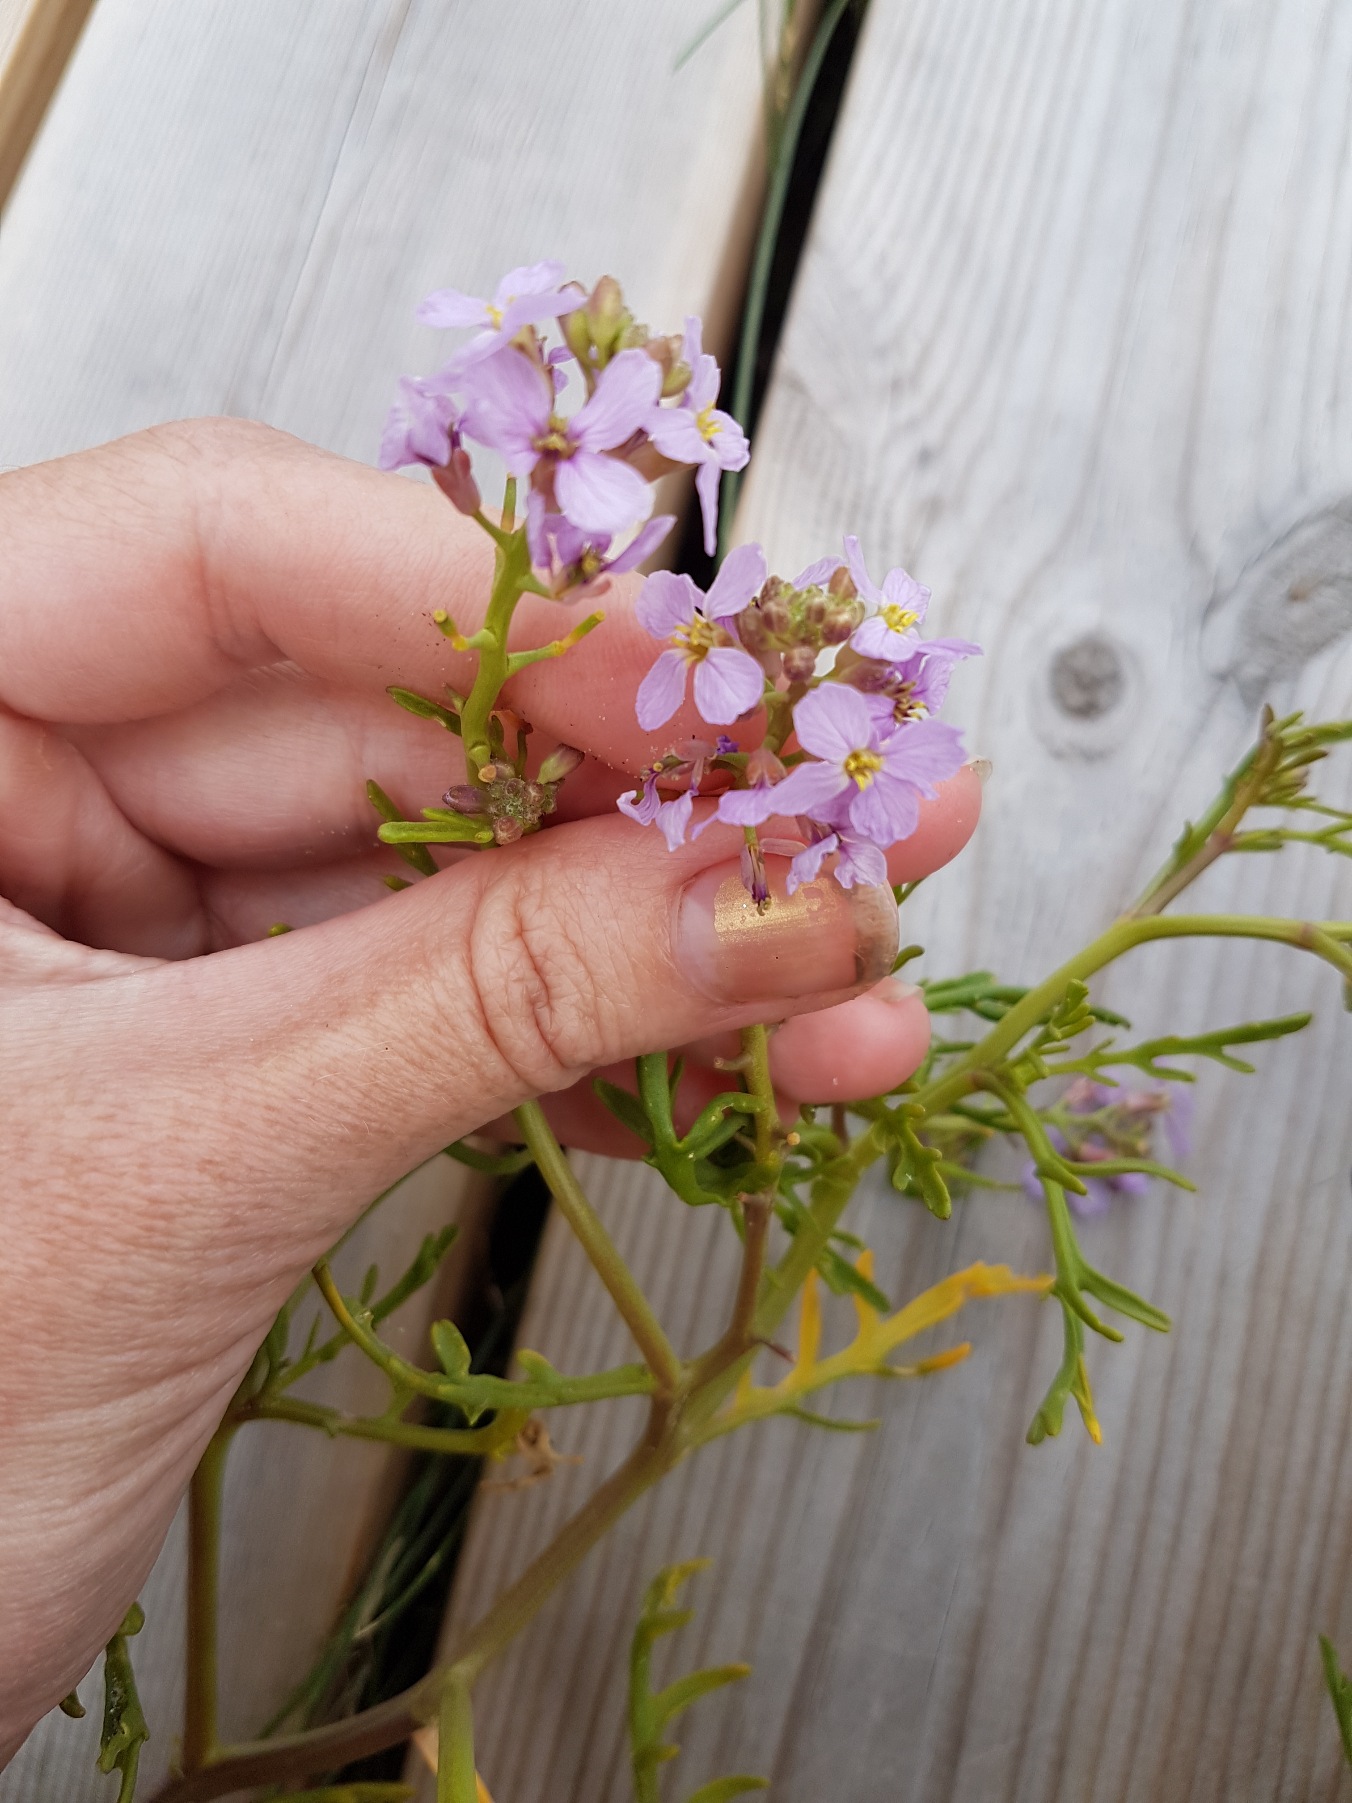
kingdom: Plantae
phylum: Tracheophyta
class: Magnoliopsida
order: Brassicales
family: Brassicaceae
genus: Cakile
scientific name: Cakile maritima
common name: Strandsennep
